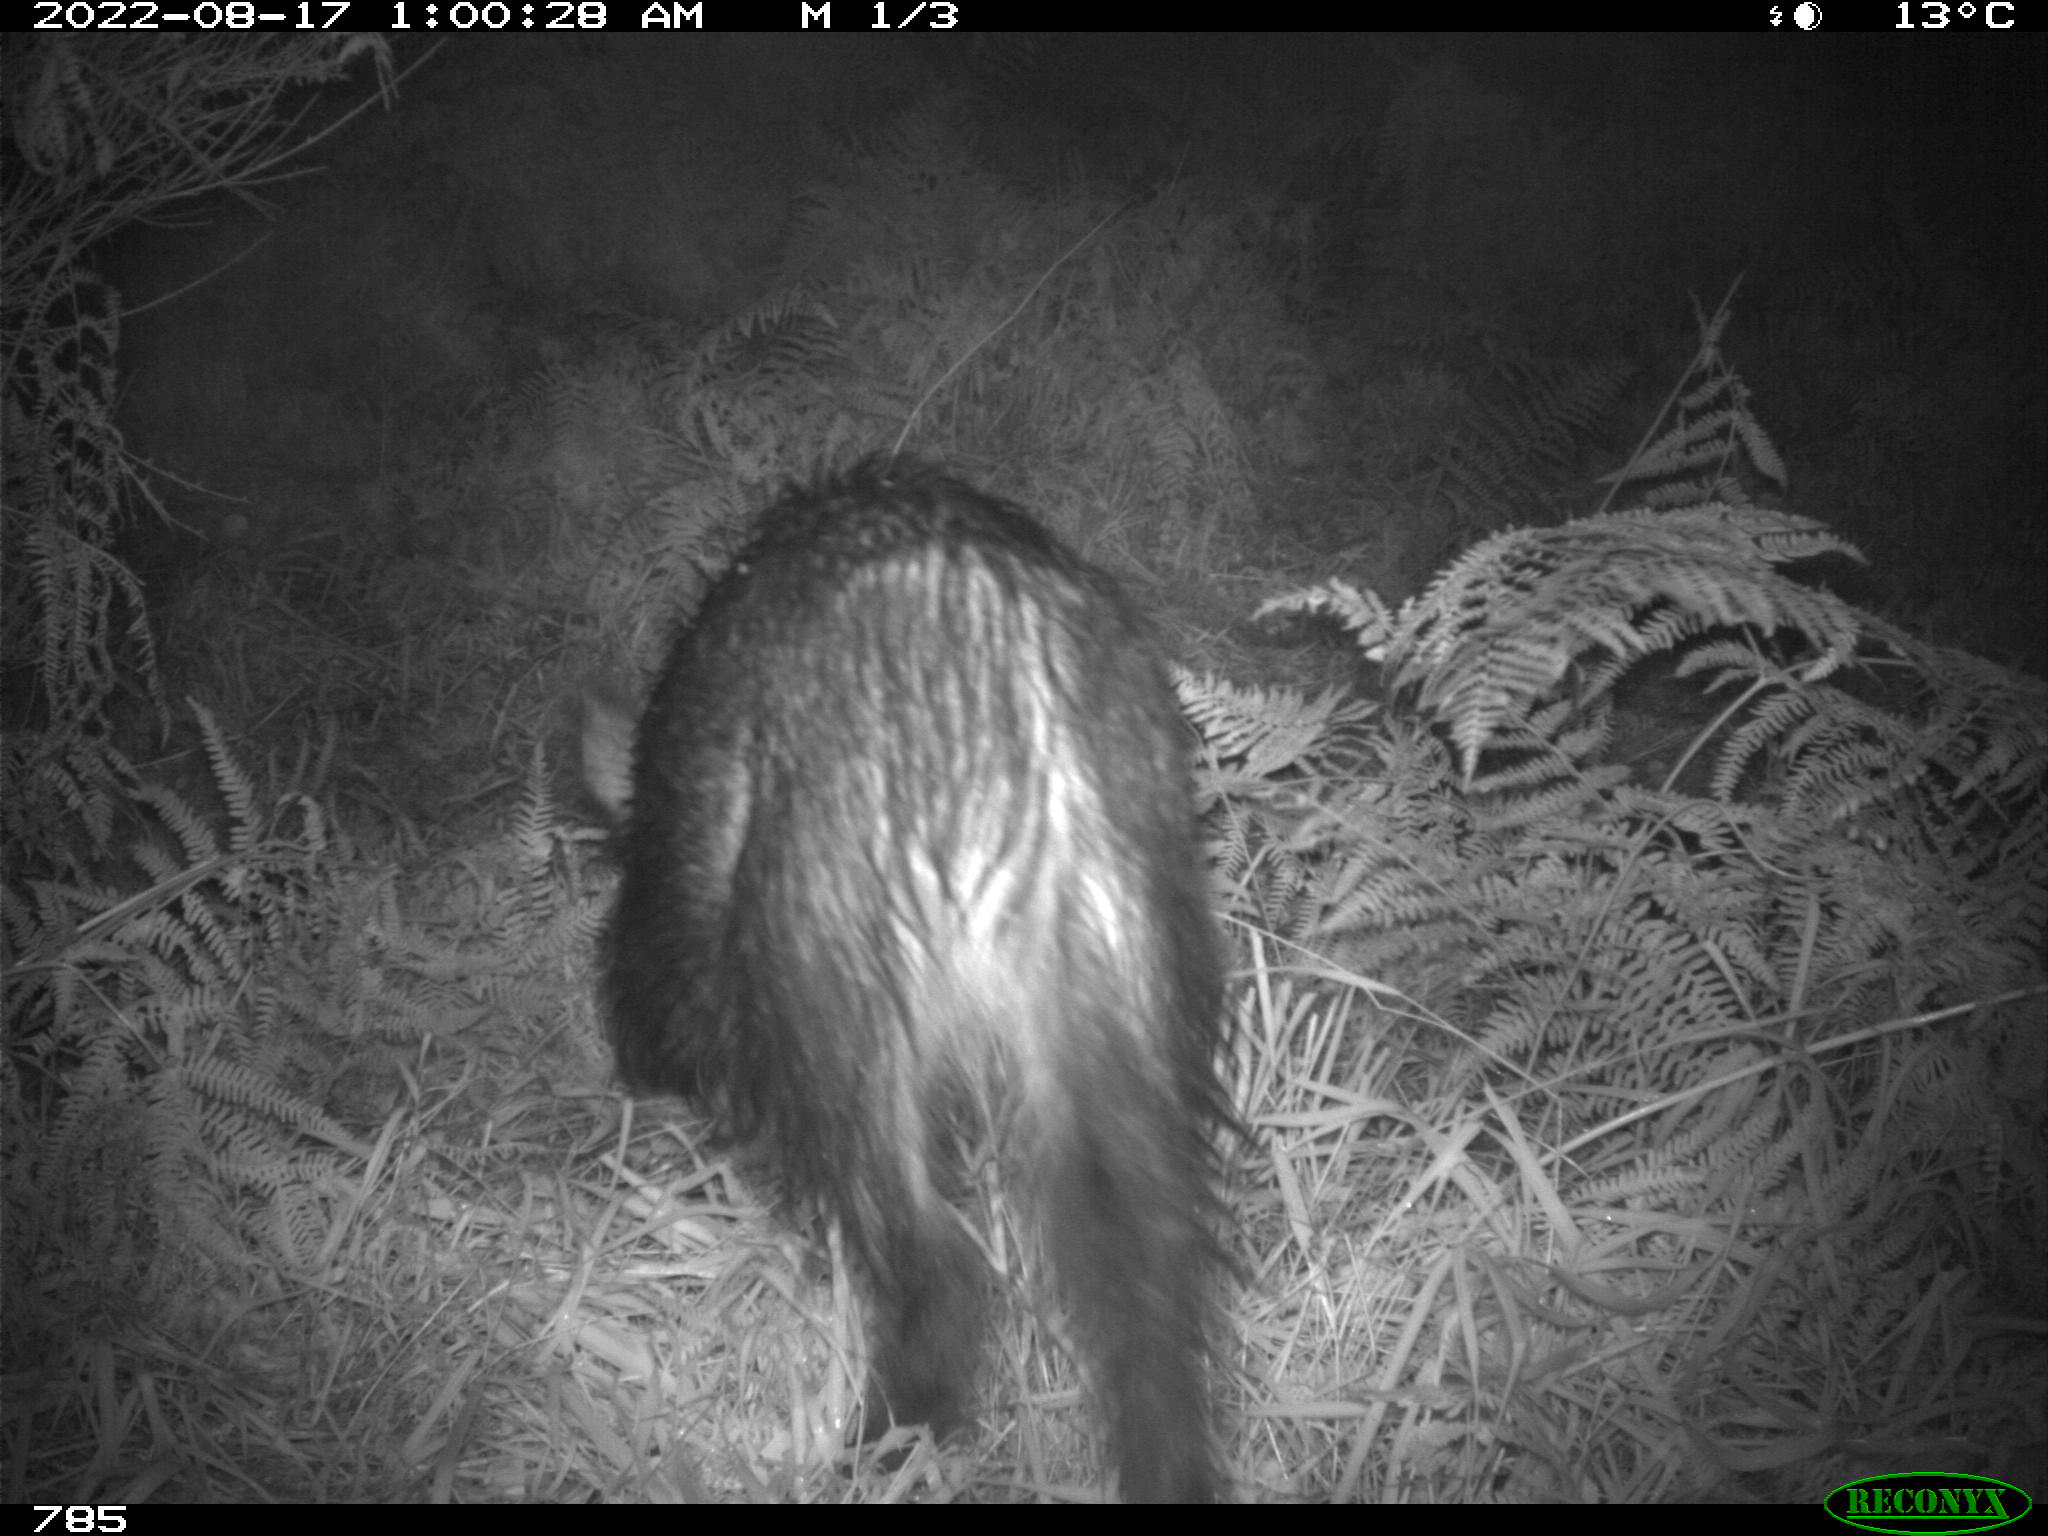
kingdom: Animalia
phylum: Chordata
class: Mammalia
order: Artiodactyla
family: Suidae
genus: Sus
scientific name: Sus scrofa
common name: Wild boar
